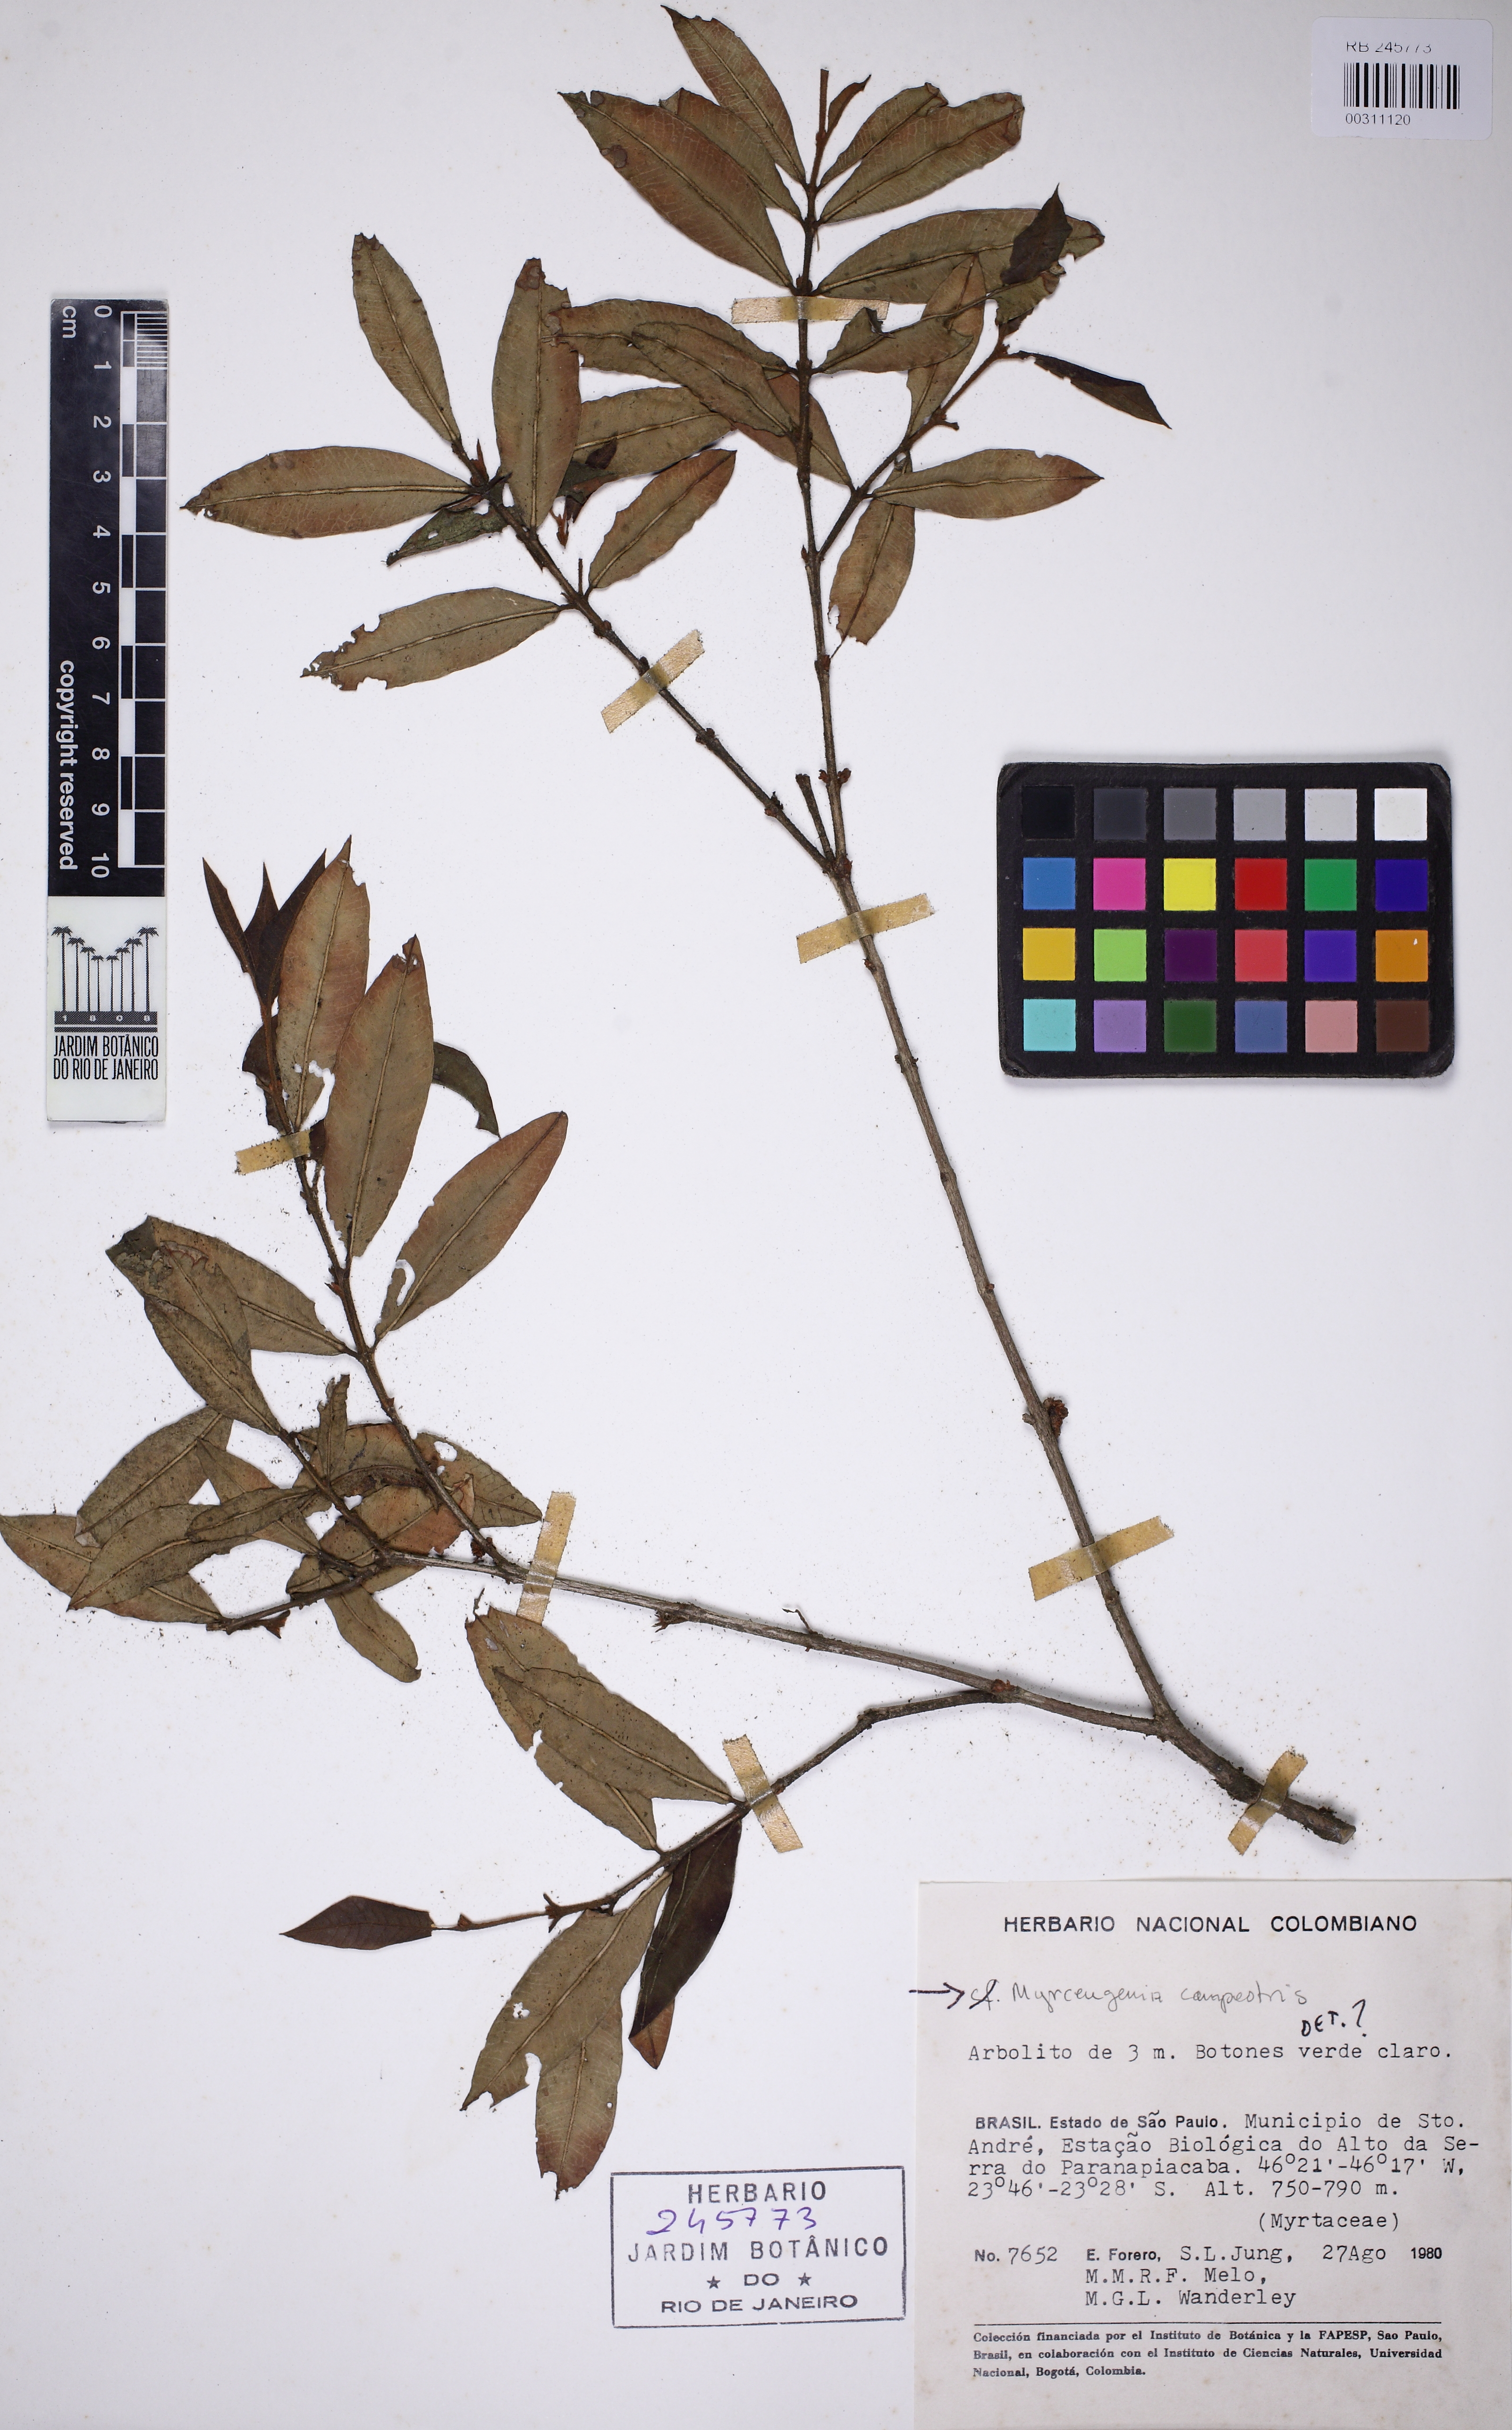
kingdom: Plantae
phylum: Tracheophyta
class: Magnoliopsida
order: Myrtales
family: Myrtaceae
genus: Myrceugenia
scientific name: Myrceugenia campestris
